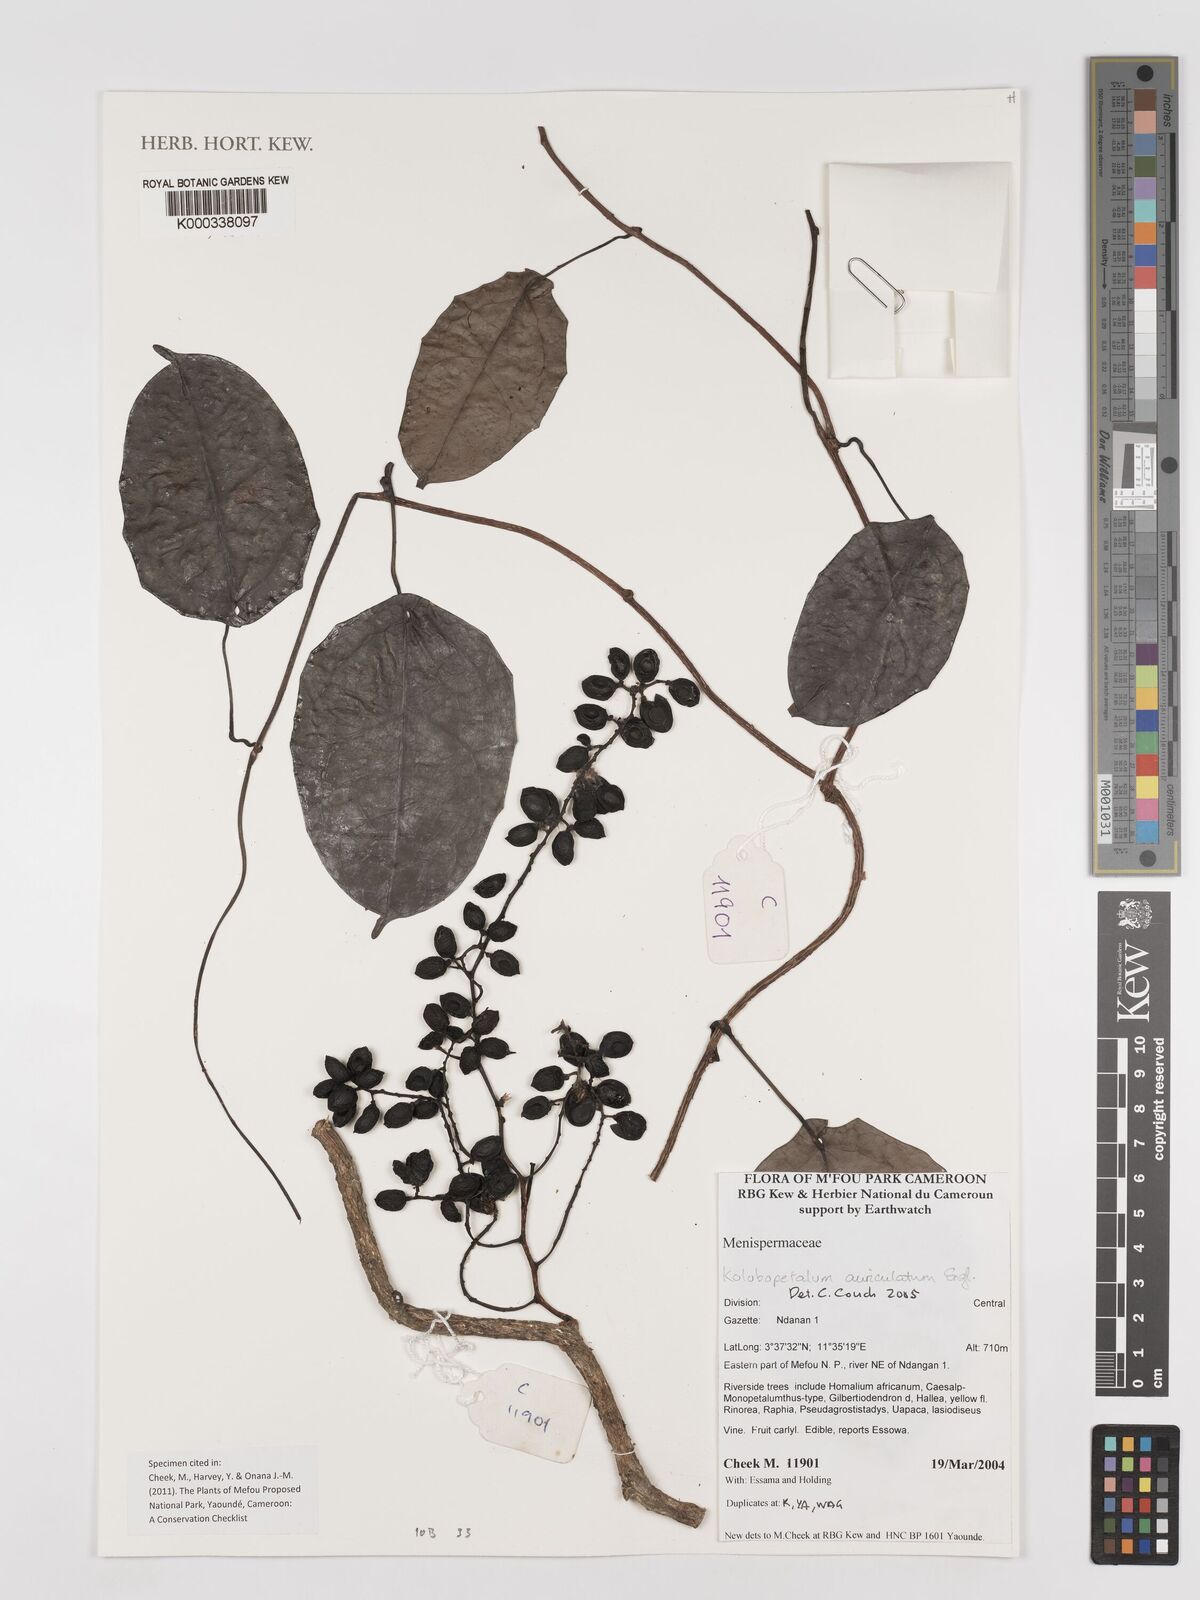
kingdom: Plantae
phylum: Tracheophyta
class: Magnoliopsida
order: Ranunculales
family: Menispermaceae
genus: Kolobopetalum
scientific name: Kolobopetalum auriculatum
